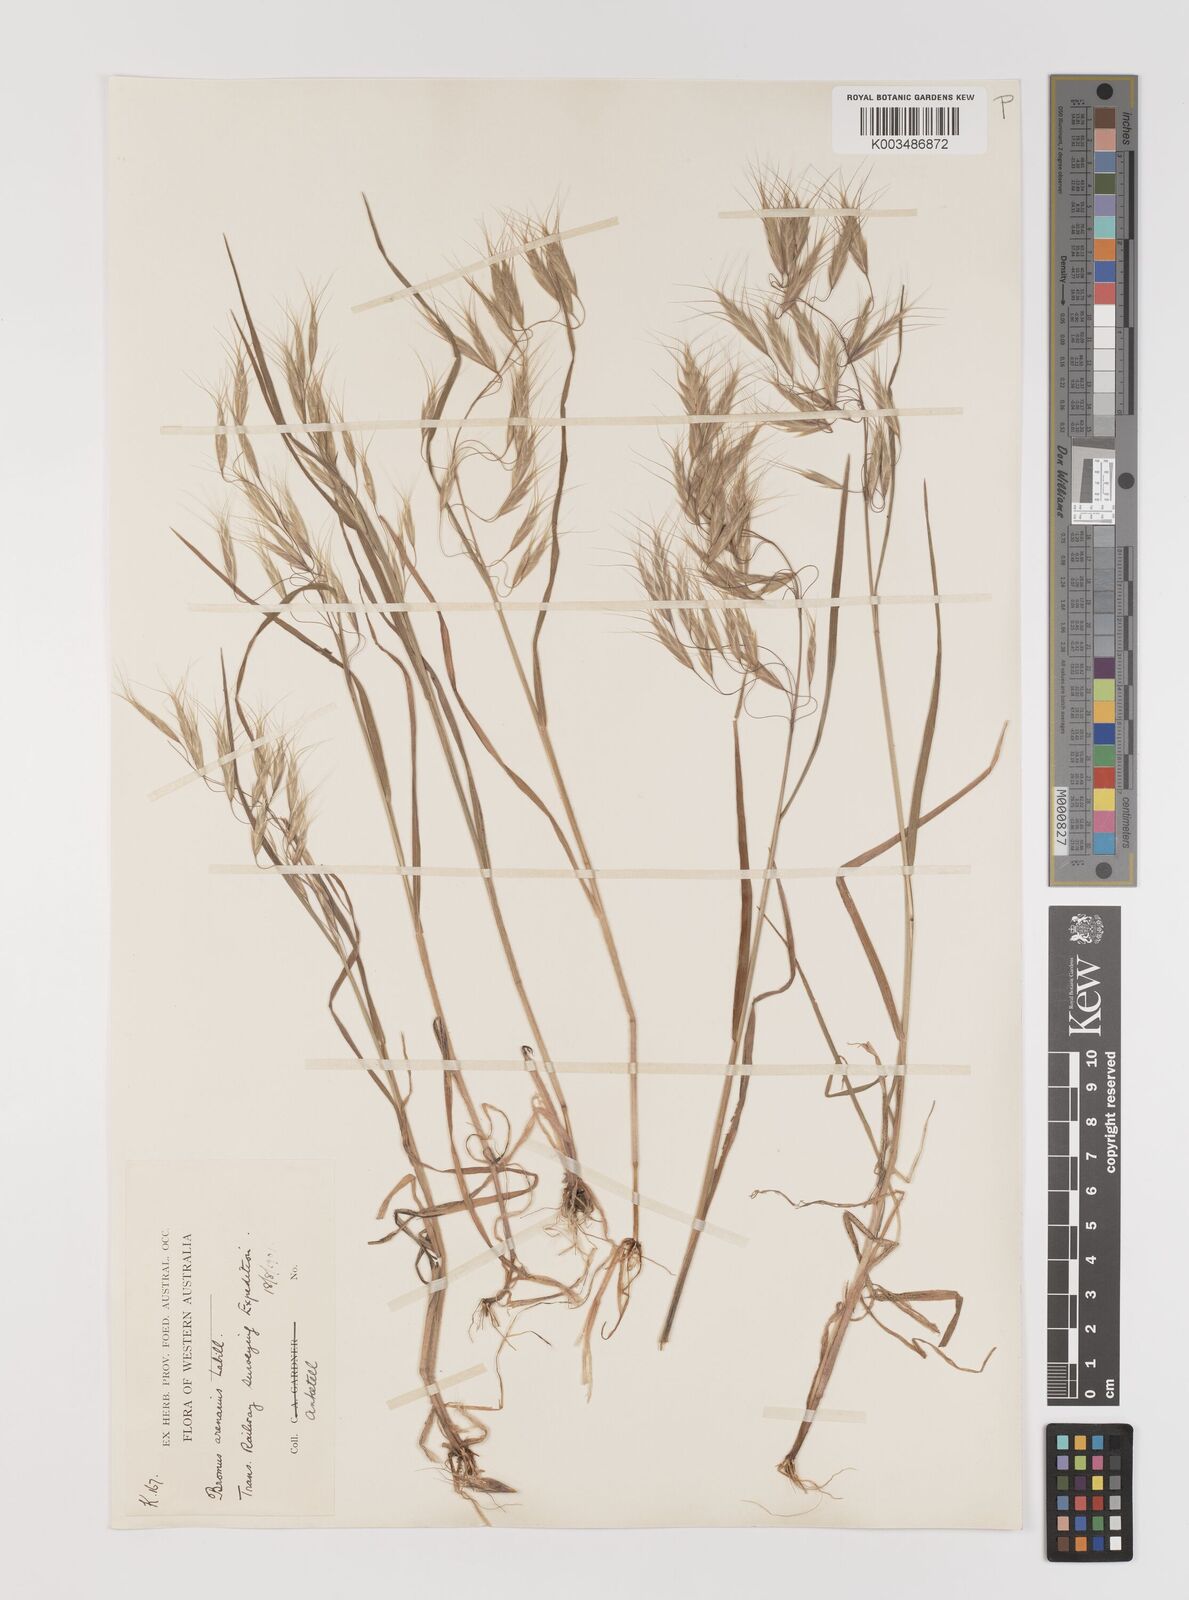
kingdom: Plantae
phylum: Tracheophyta
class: Liliopsida
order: Poales
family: Poaceae
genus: Bromus
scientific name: Bromus arenarius
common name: Australian brome
